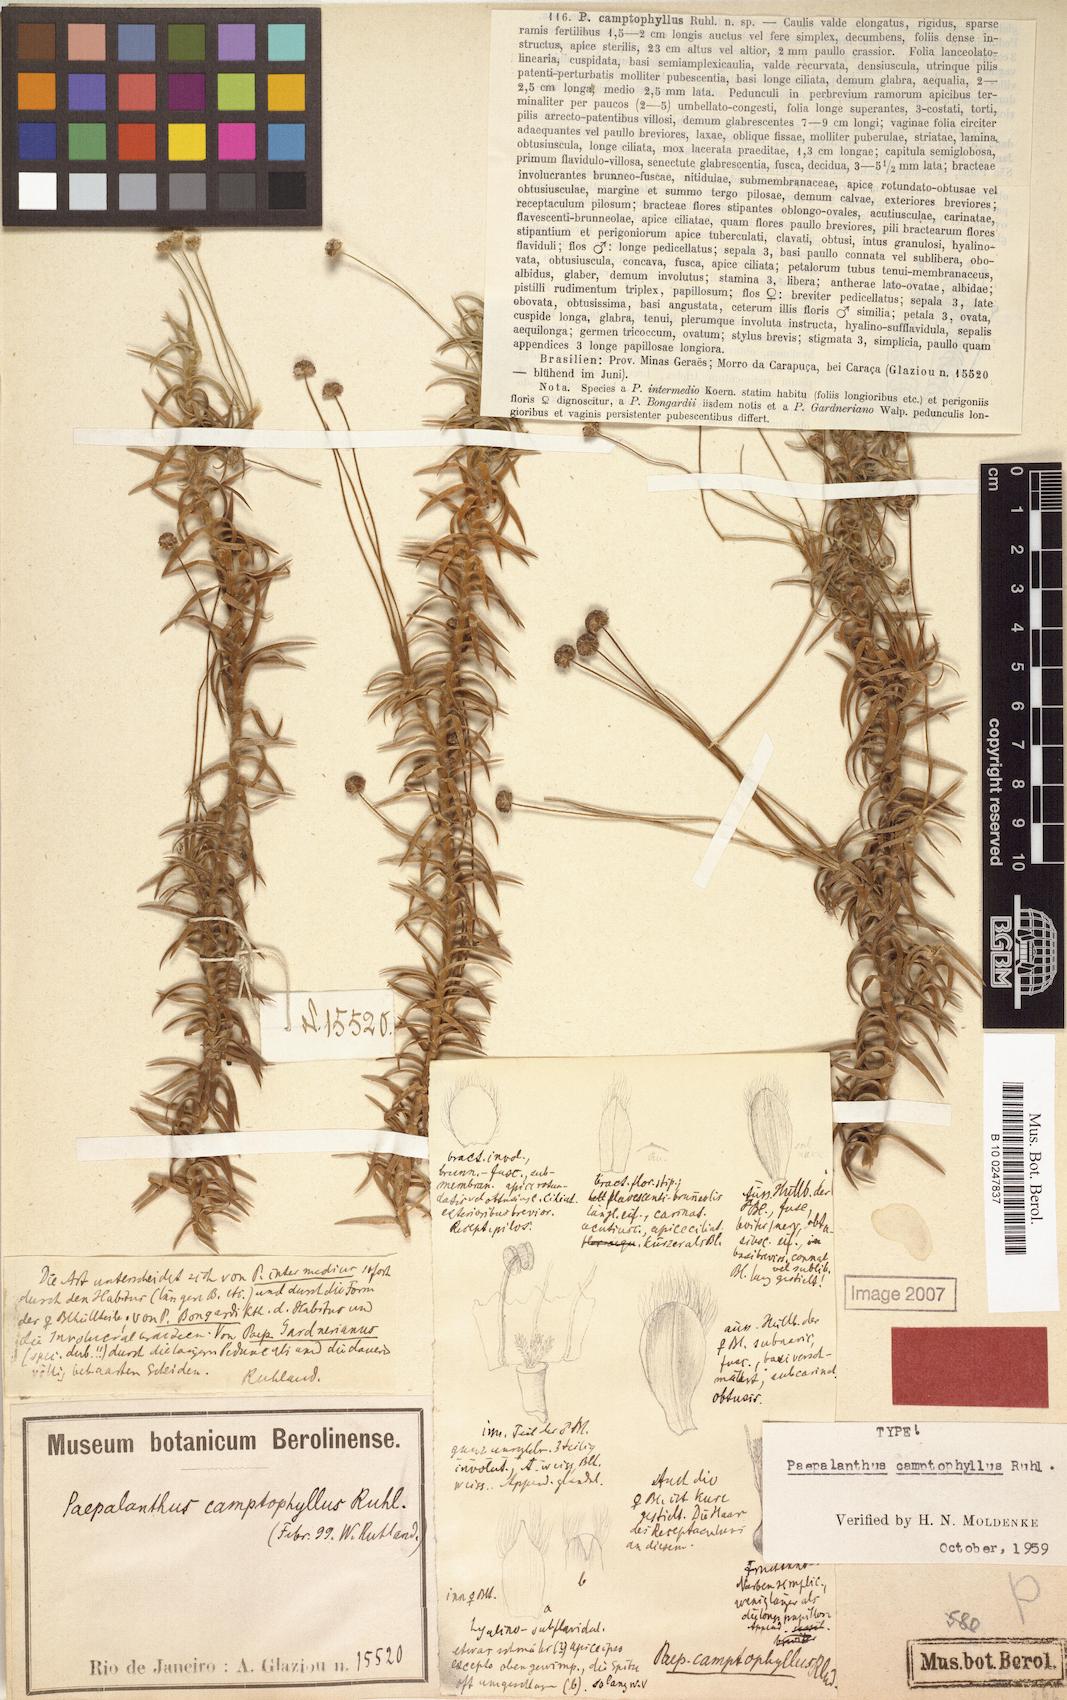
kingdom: Plantae
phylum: Tracheophyta
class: Liliopsida
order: Poales
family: Eriocaulaceae
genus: Paepalanthus
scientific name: Paepalanthus camptophyllus
